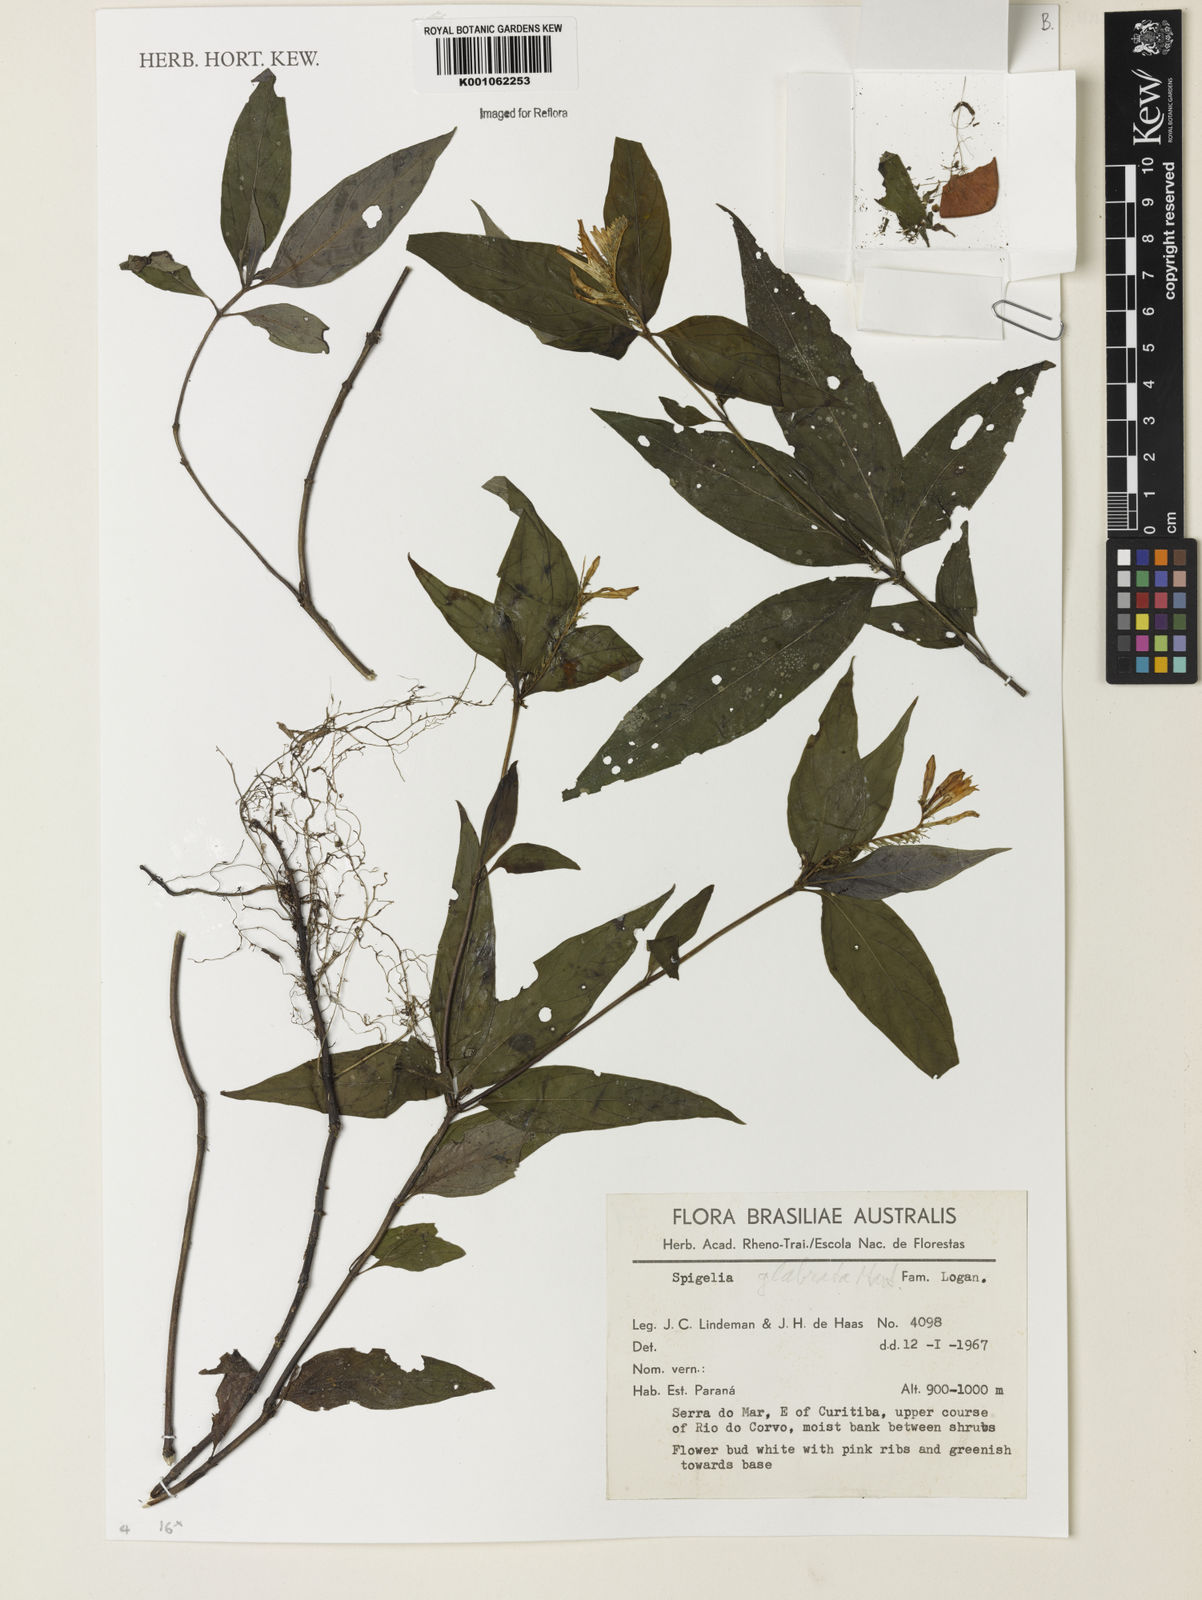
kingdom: Plantae
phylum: Tracheophyta
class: Magnoliopsida
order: Gentianales
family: Loganiaceae
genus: Spigelia
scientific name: Spigelia
